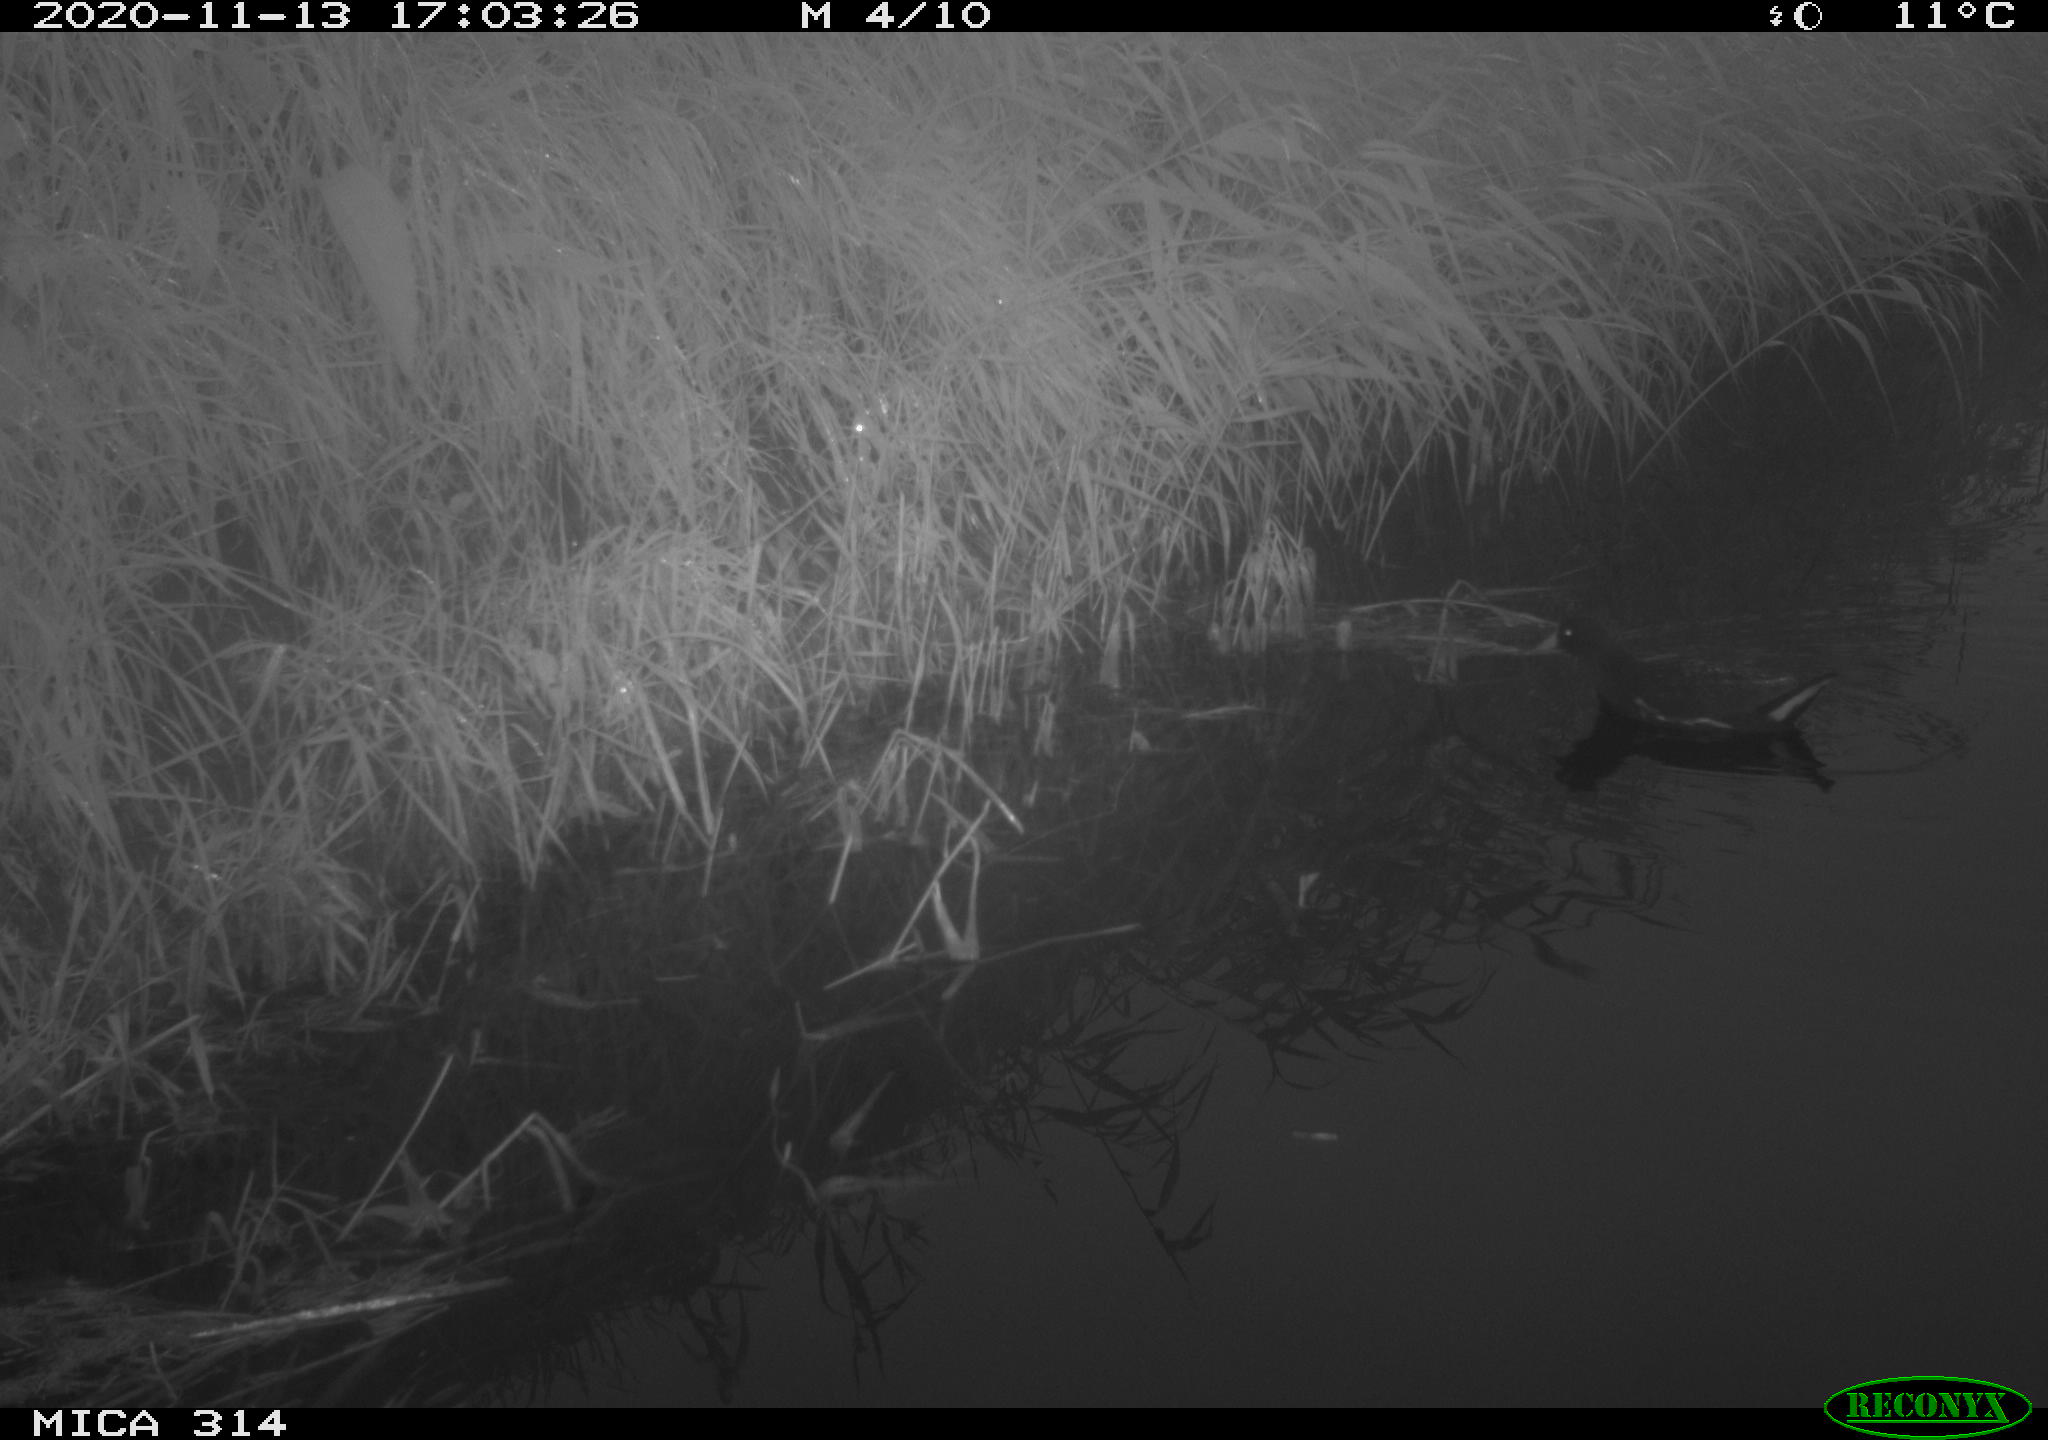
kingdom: Animalia
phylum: Chordata
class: Aves
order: Gruiformes
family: Rallidae
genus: Gallinula
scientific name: Gallinula chloropus
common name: Common moorhen
